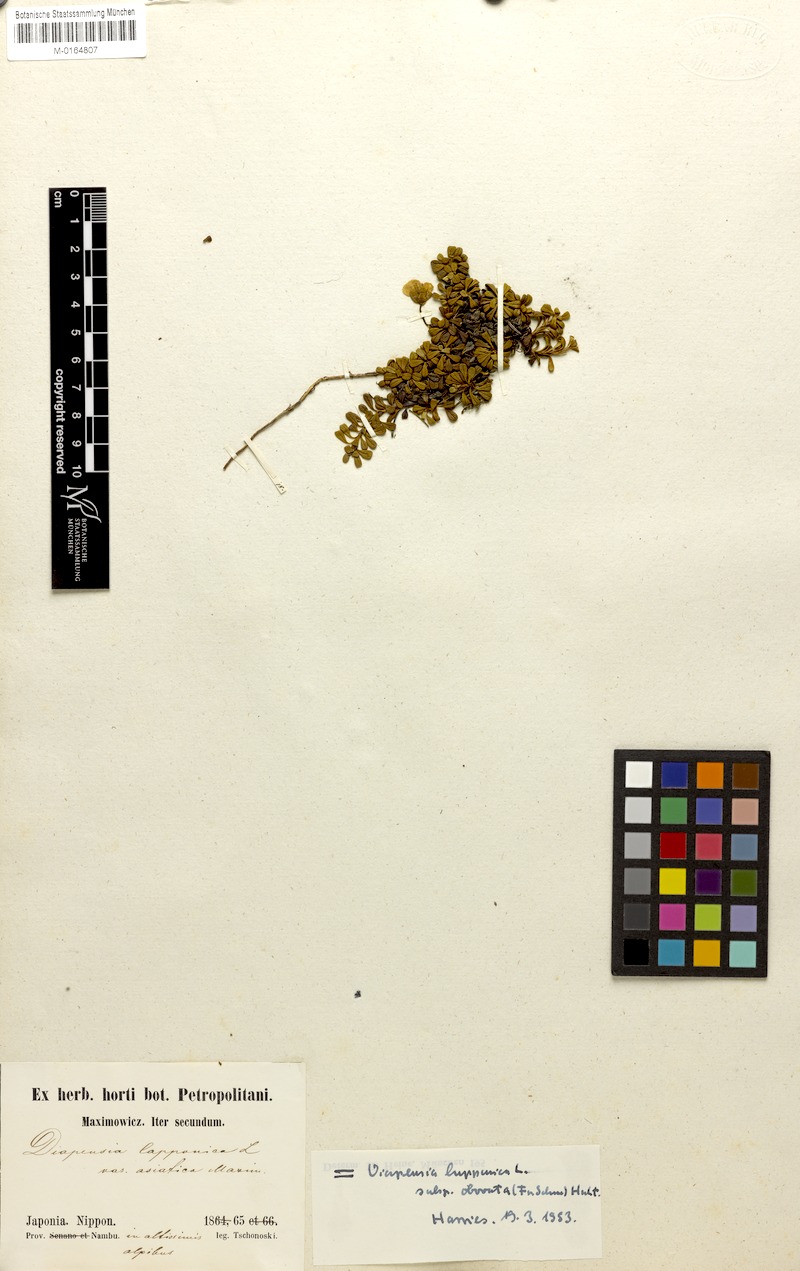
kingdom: Plantae
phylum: Tracheophyta
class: Magnoliopsida
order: Ericales
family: Diapensiaceae
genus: Diapensia
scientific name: Diapensia obovata
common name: Alaska diapensia
